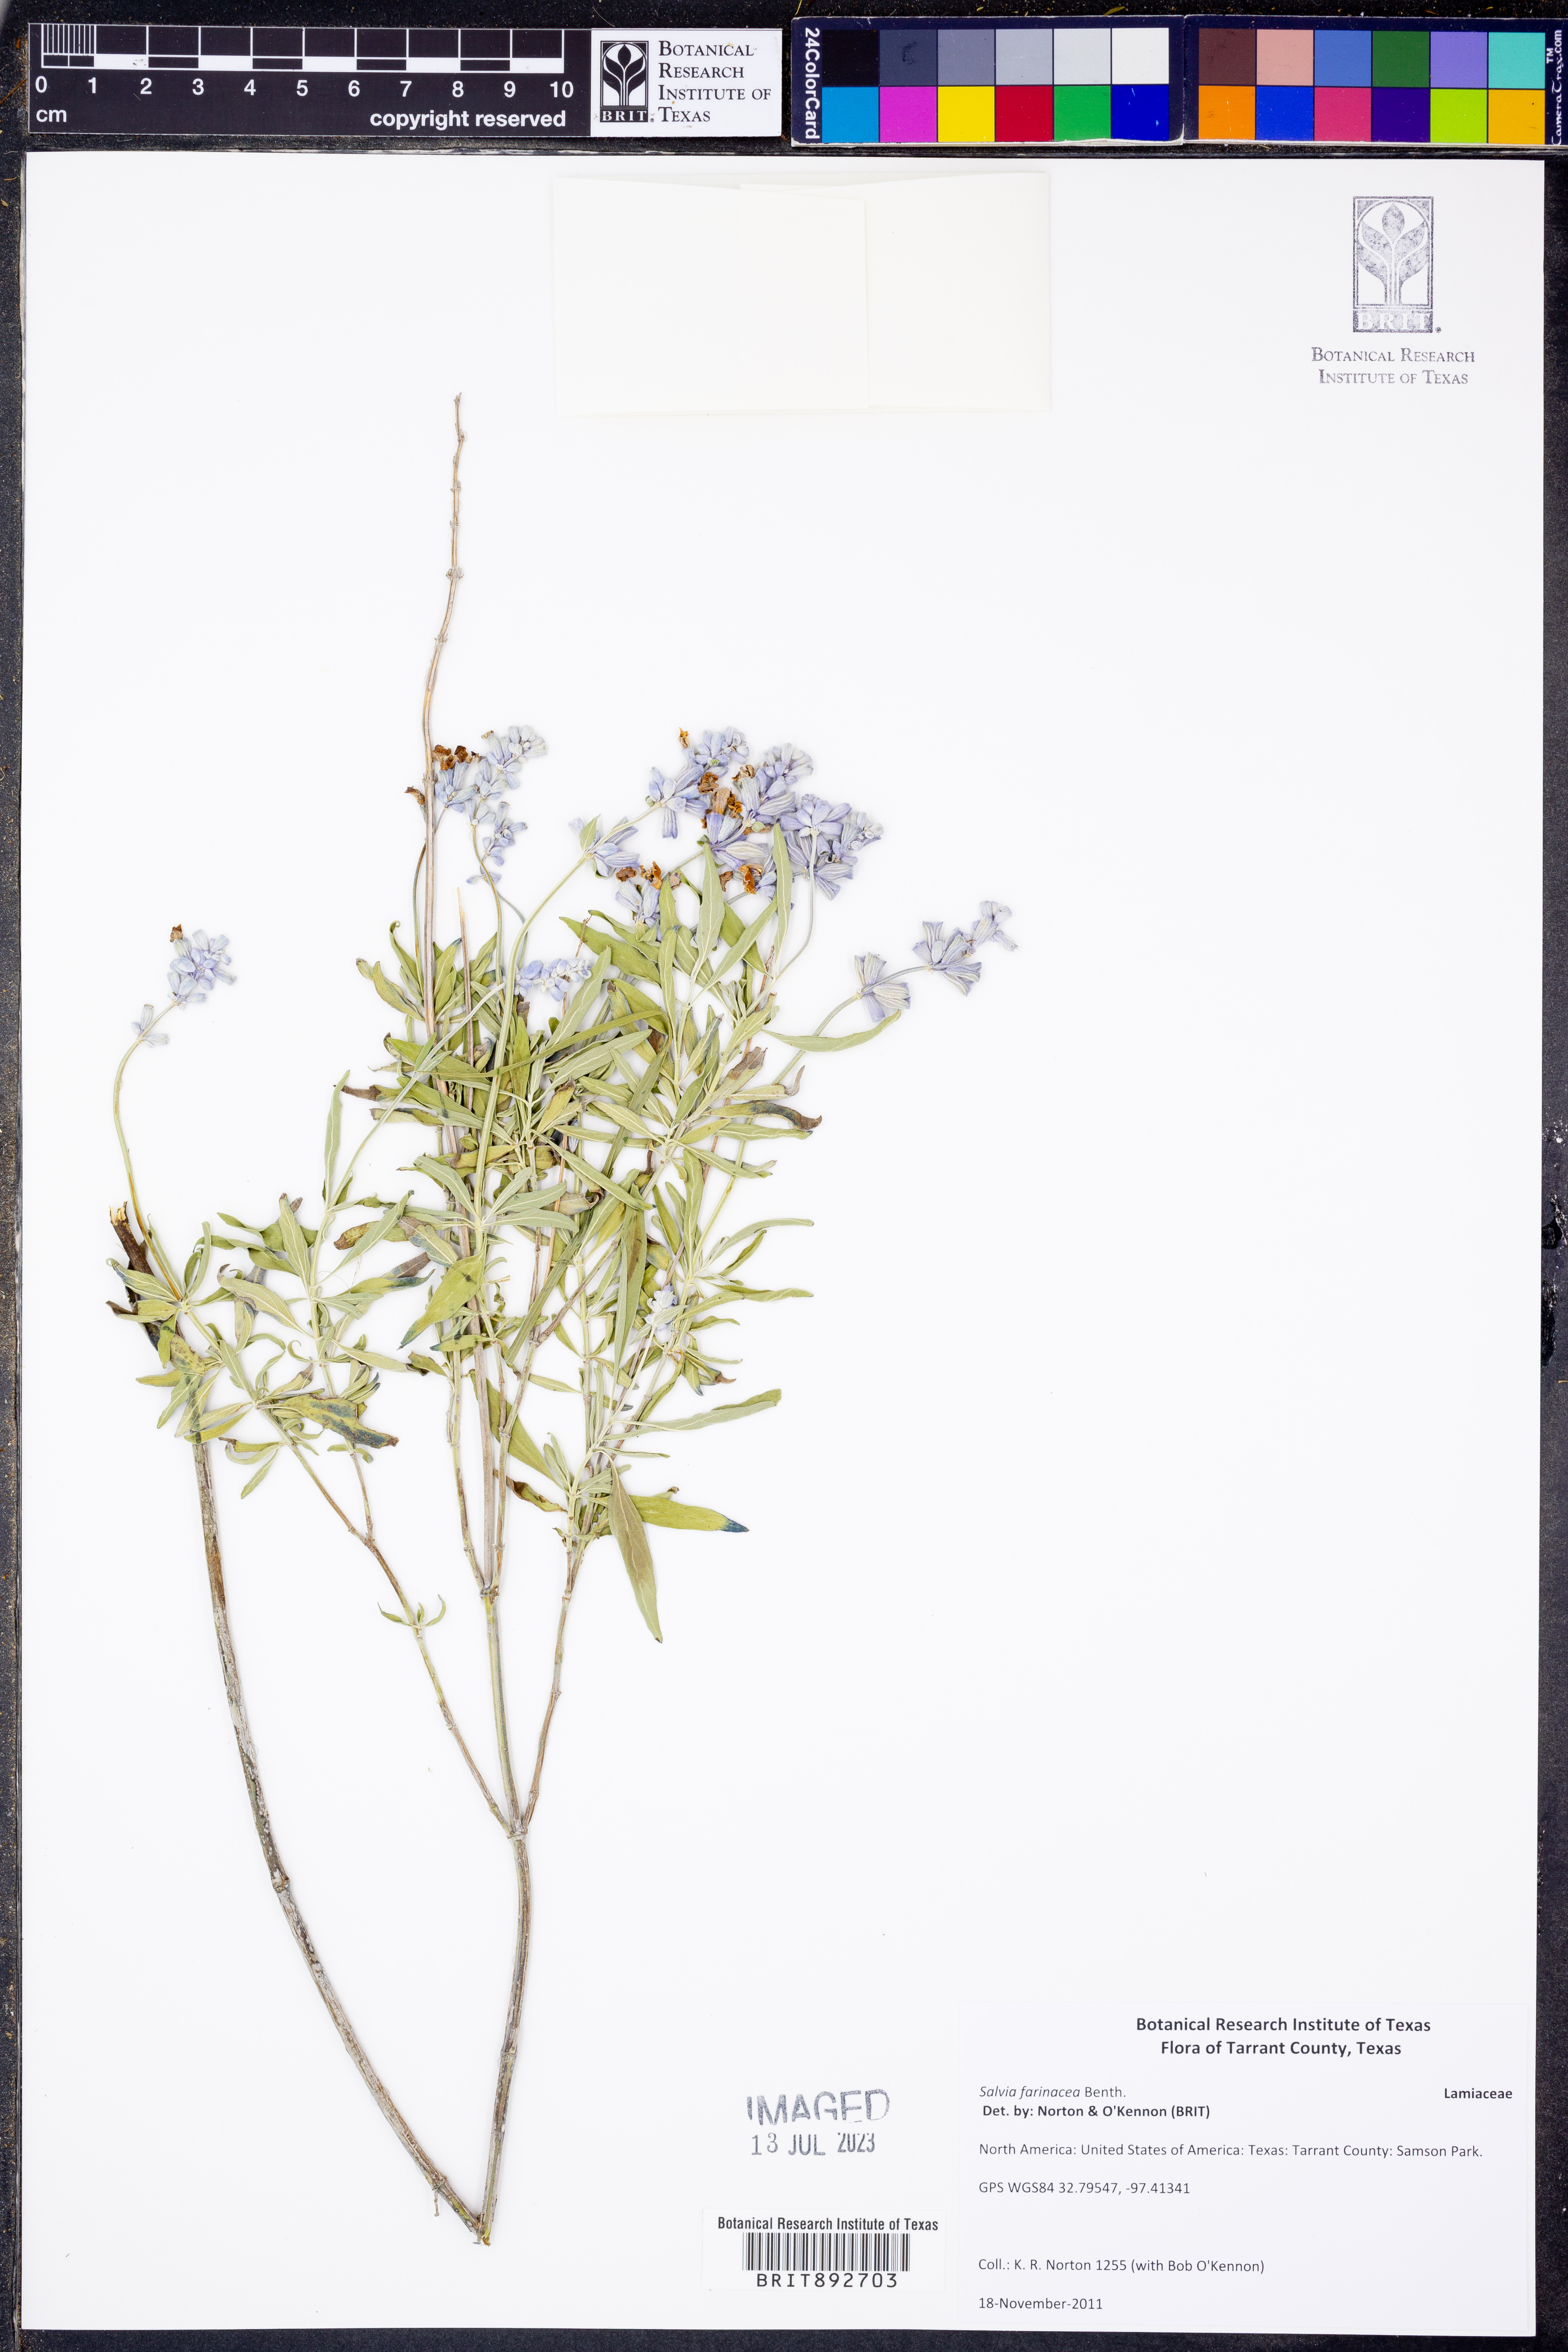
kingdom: Plantae
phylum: Tracheophyta
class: Magnoliopsida
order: Lamiales
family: Lamiaceae
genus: Salvia
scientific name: Salvia farinacea
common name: Mealy sage
